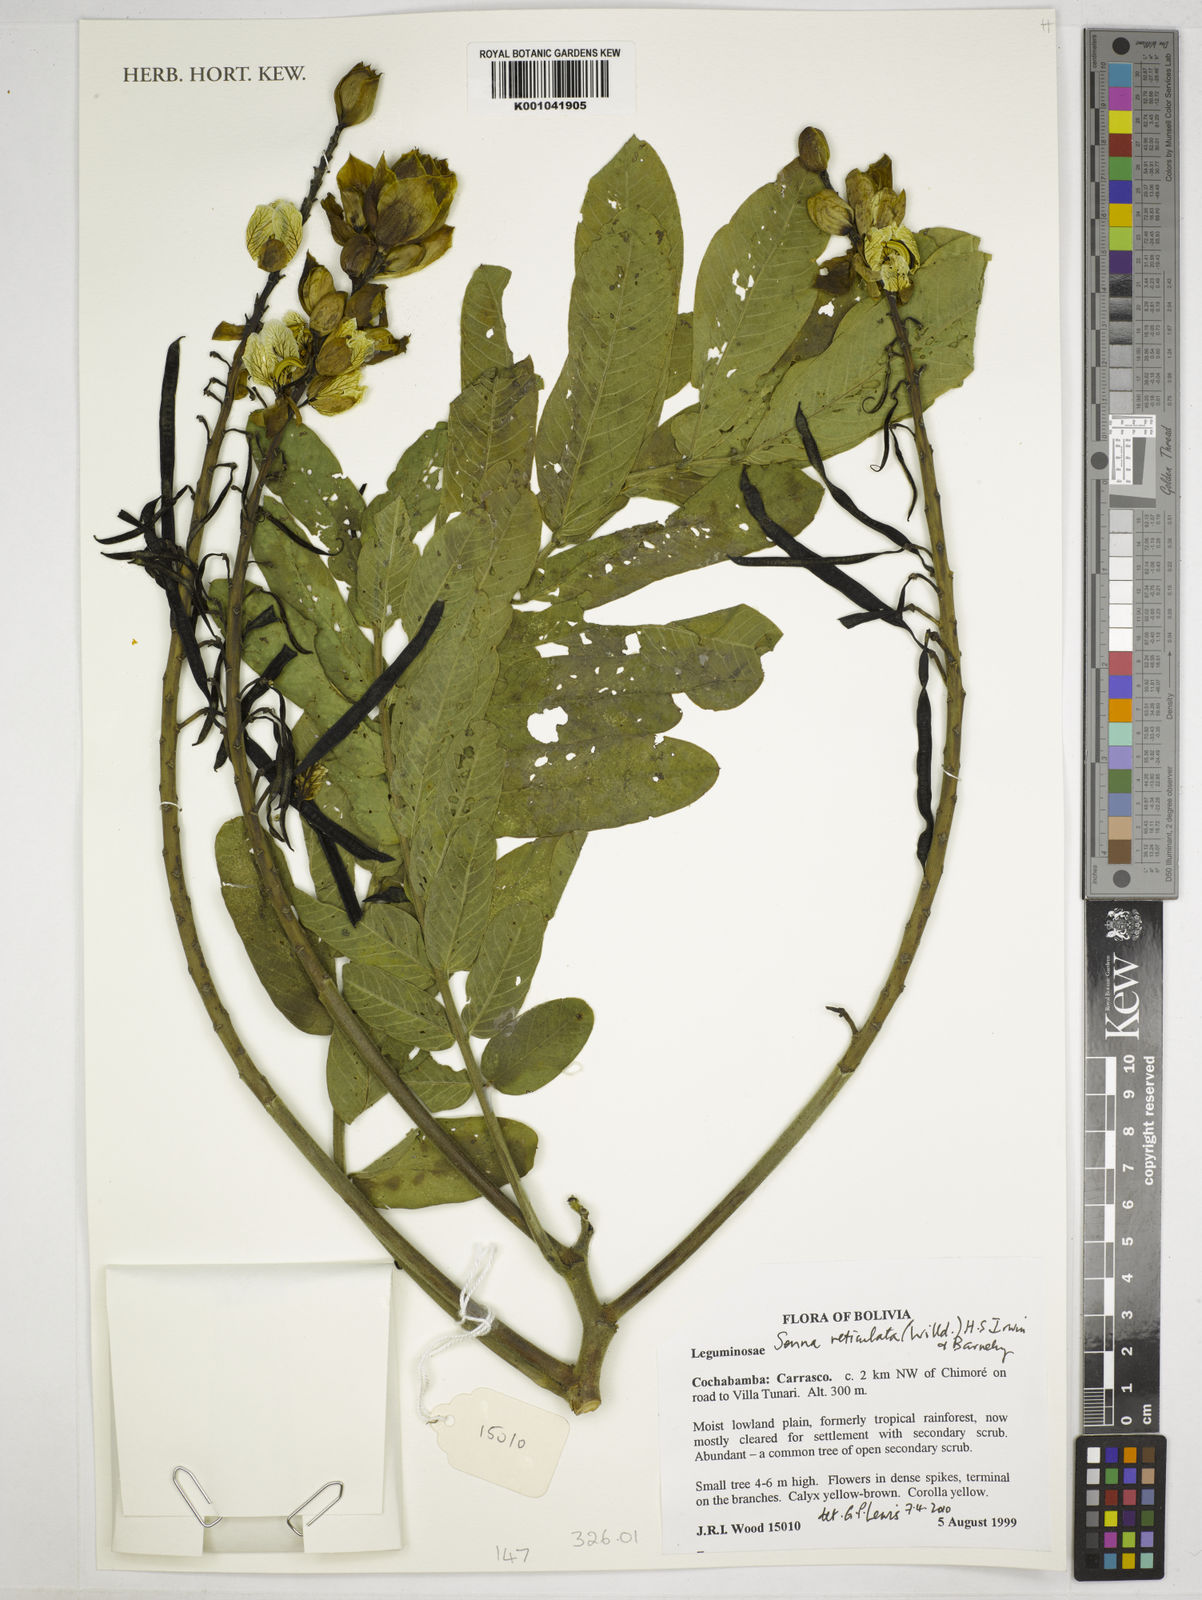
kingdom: Plantae
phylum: Tracheophyta
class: Magnoliopsida
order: Fabales
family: Fabaceae
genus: Senna
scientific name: Senna reticulata
